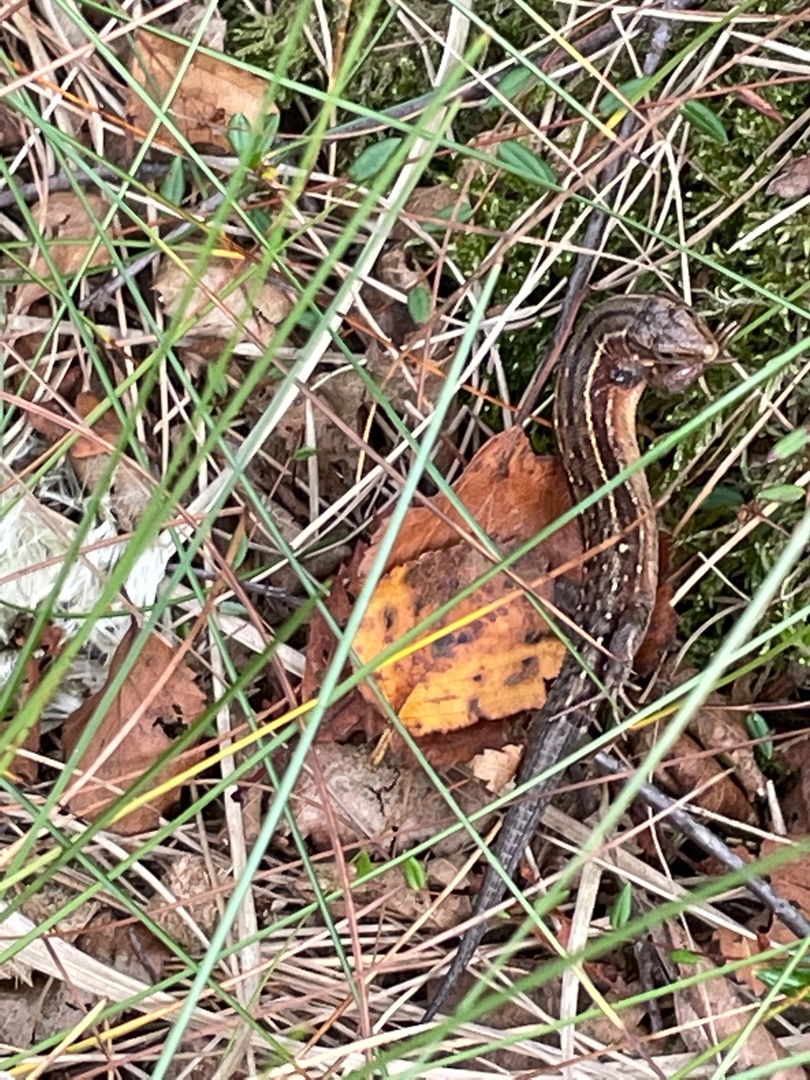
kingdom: Animalia
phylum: Chordata
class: Squamata
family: Lacertidae
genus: Zootoca
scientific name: Zootoca vivipara
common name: Skovfirben
